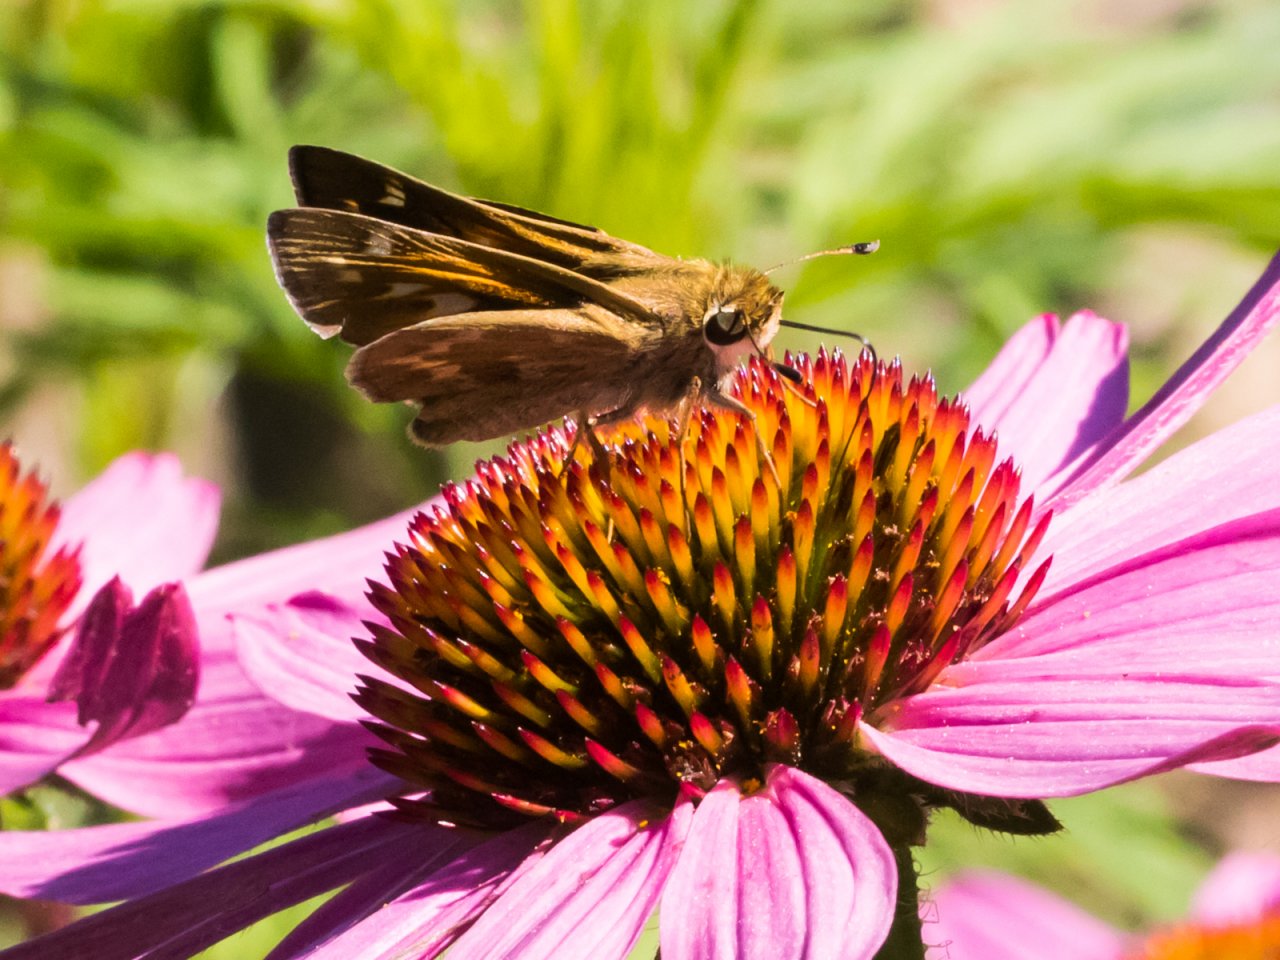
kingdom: Animalia
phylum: Arthropoda
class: Insecta
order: Lepidoptera
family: Hesperiidae
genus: Atalopedes
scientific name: Atalopedes campestris
